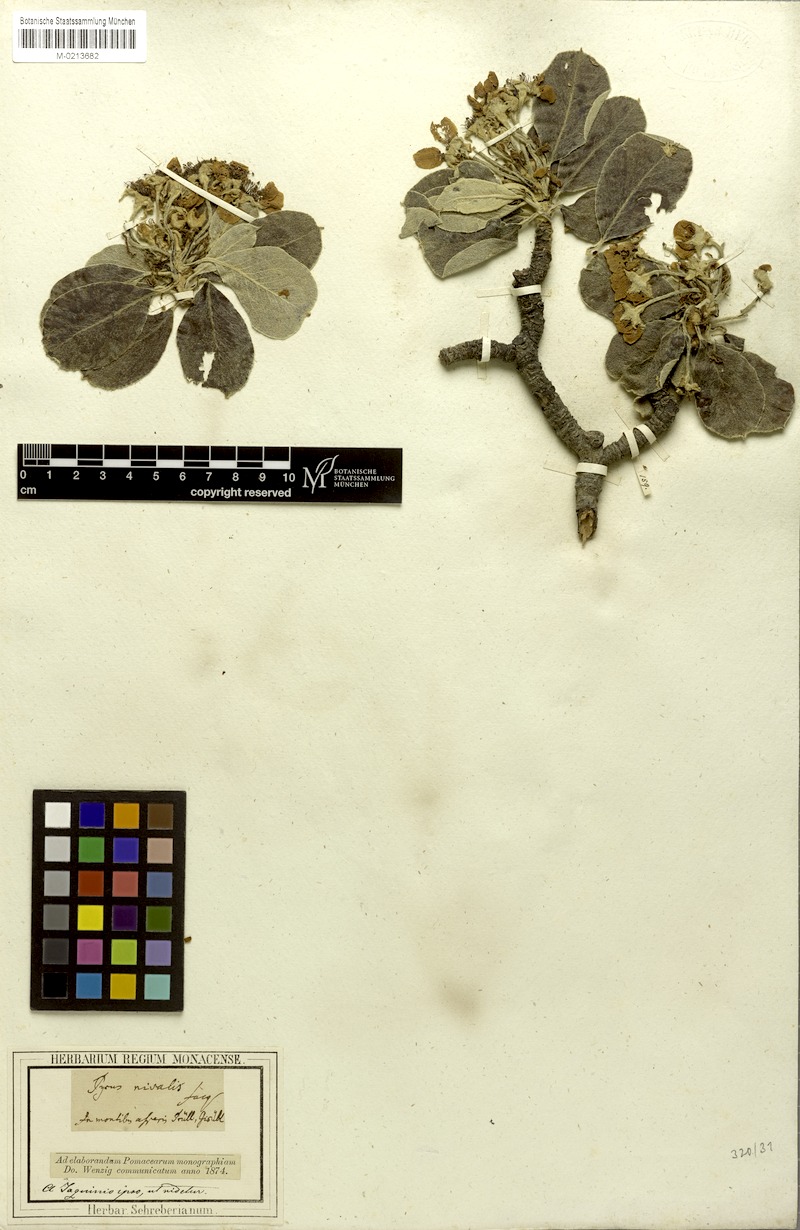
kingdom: Plantae
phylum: Tracheophyta
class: Magnoliopsida
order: Rosales
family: Rosaceae
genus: Pyrus
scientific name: Pyrus nivalis
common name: Snow pear
